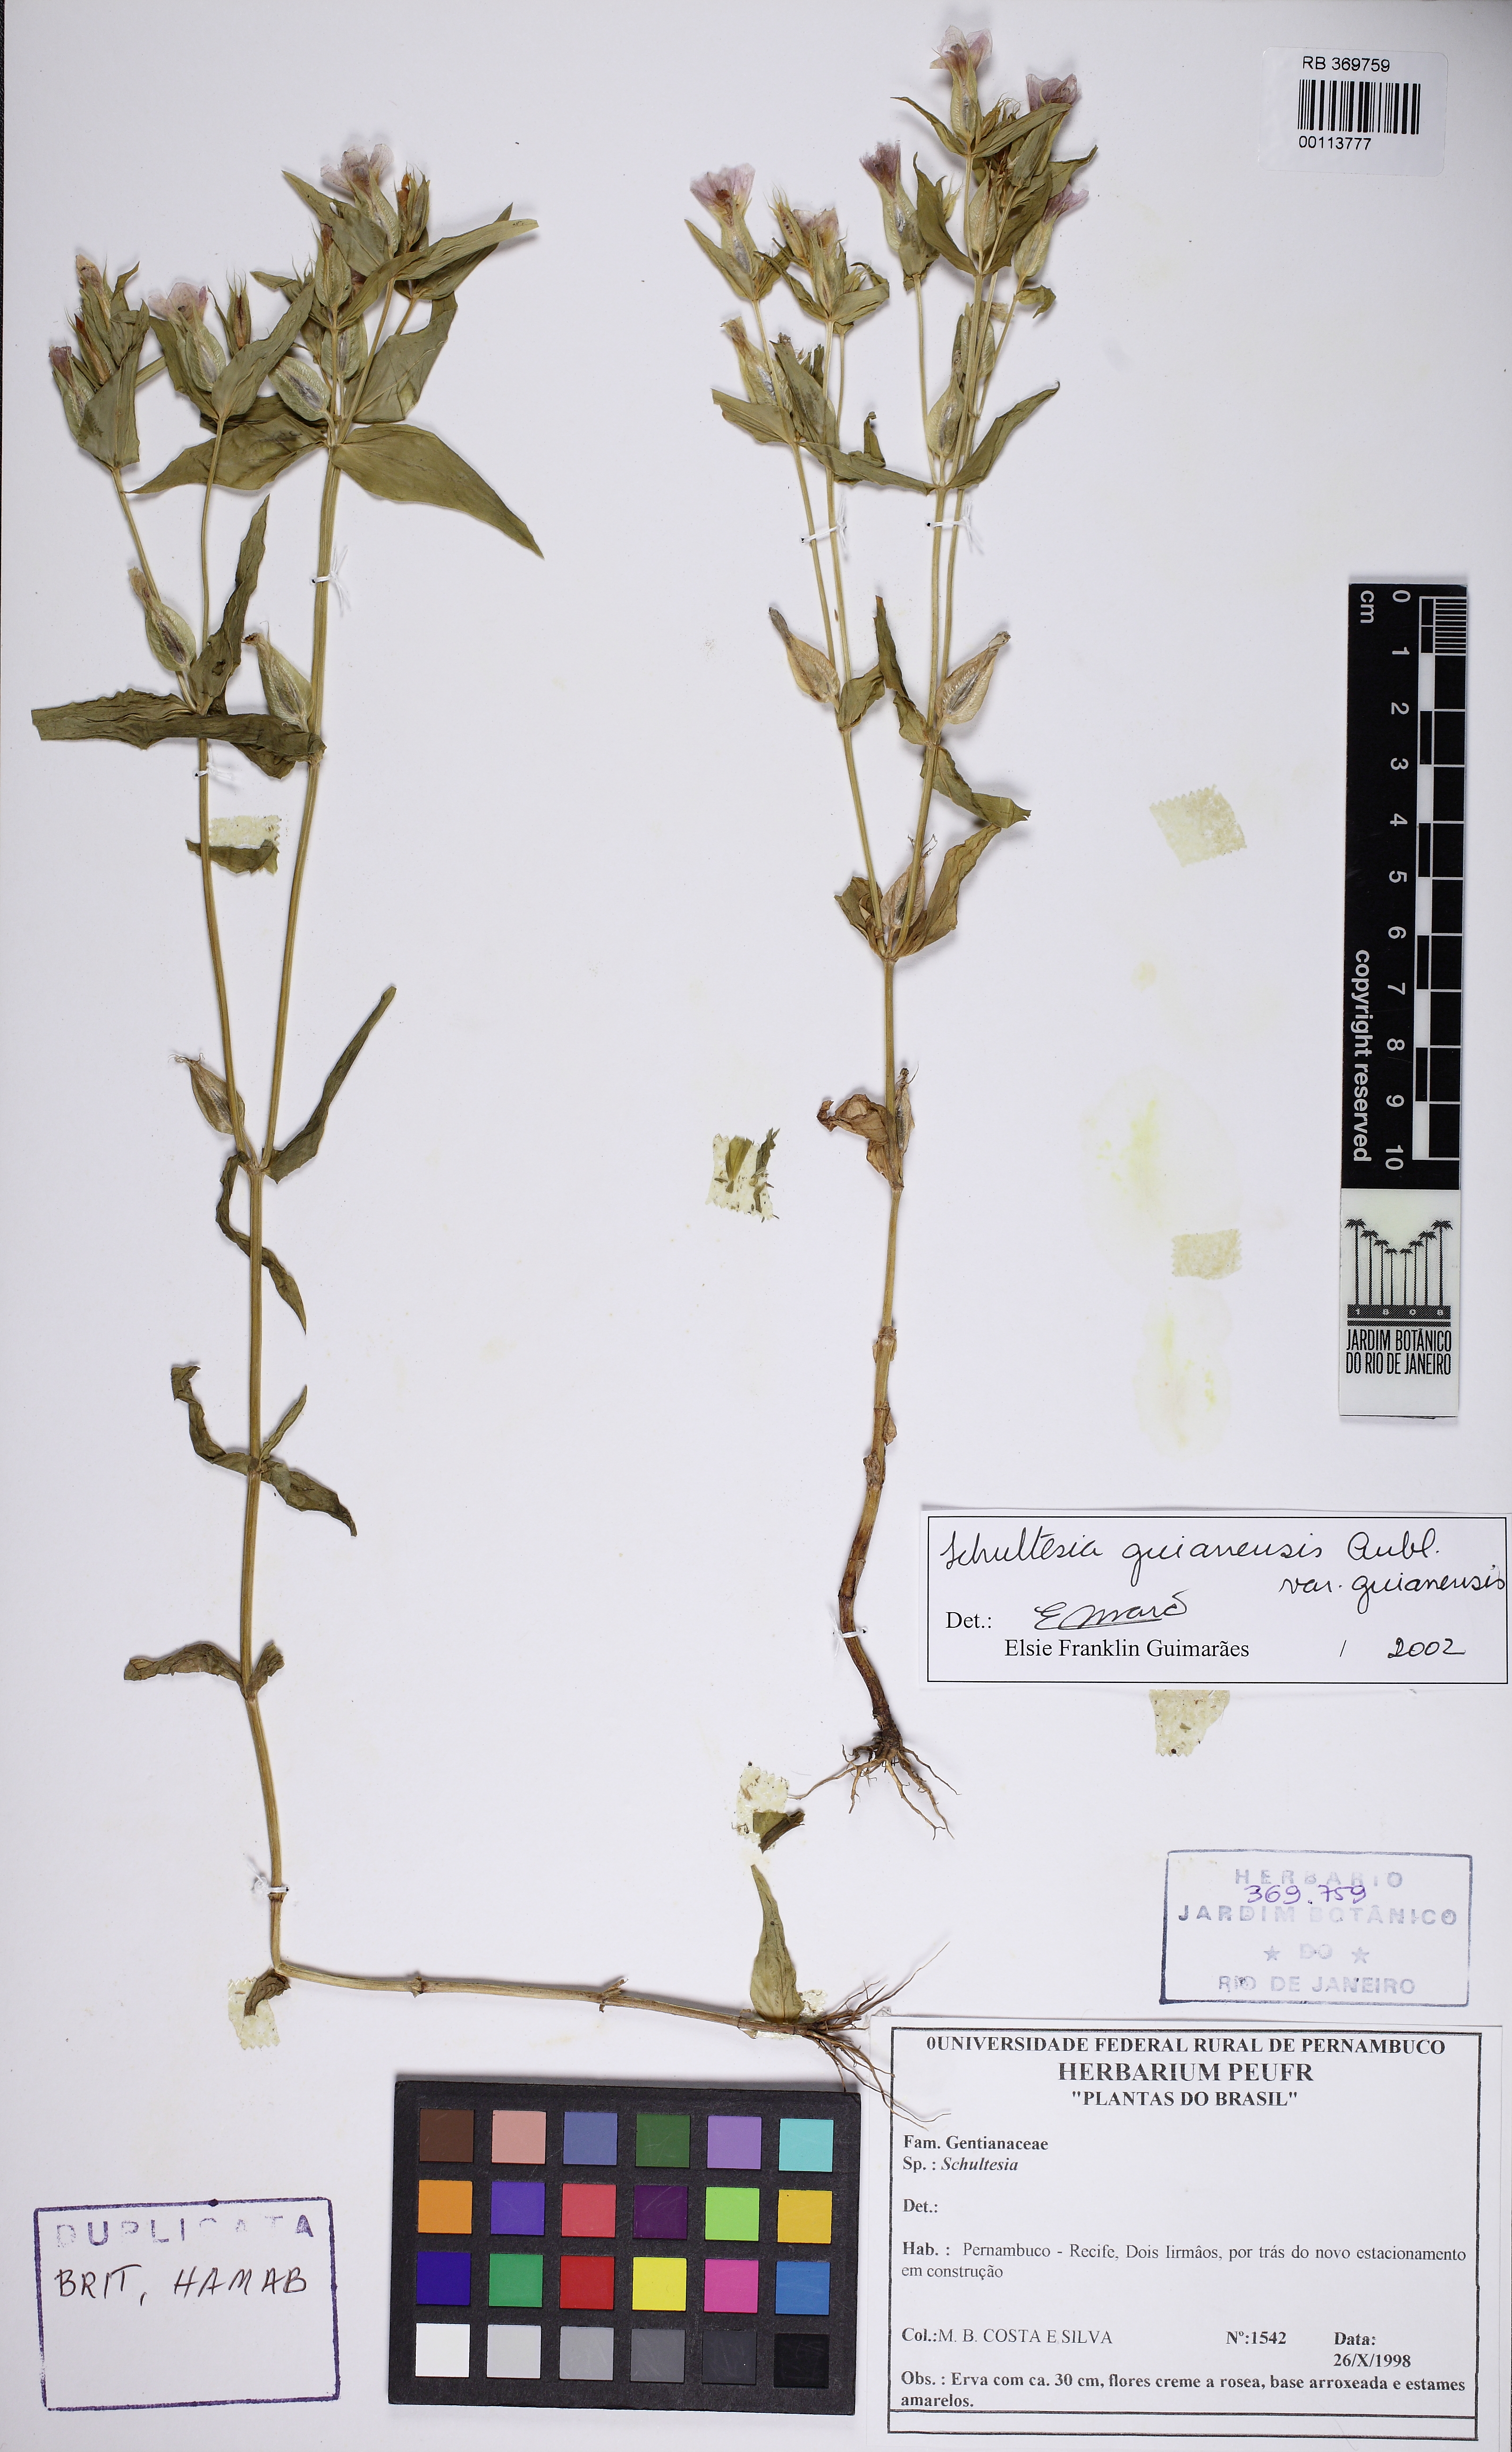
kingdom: Plantae
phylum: Tracheophyta
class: Magnoliopsida
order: Gentianales
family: Gentianaceae
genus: Schultesia
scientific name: Schultesia guianensis
